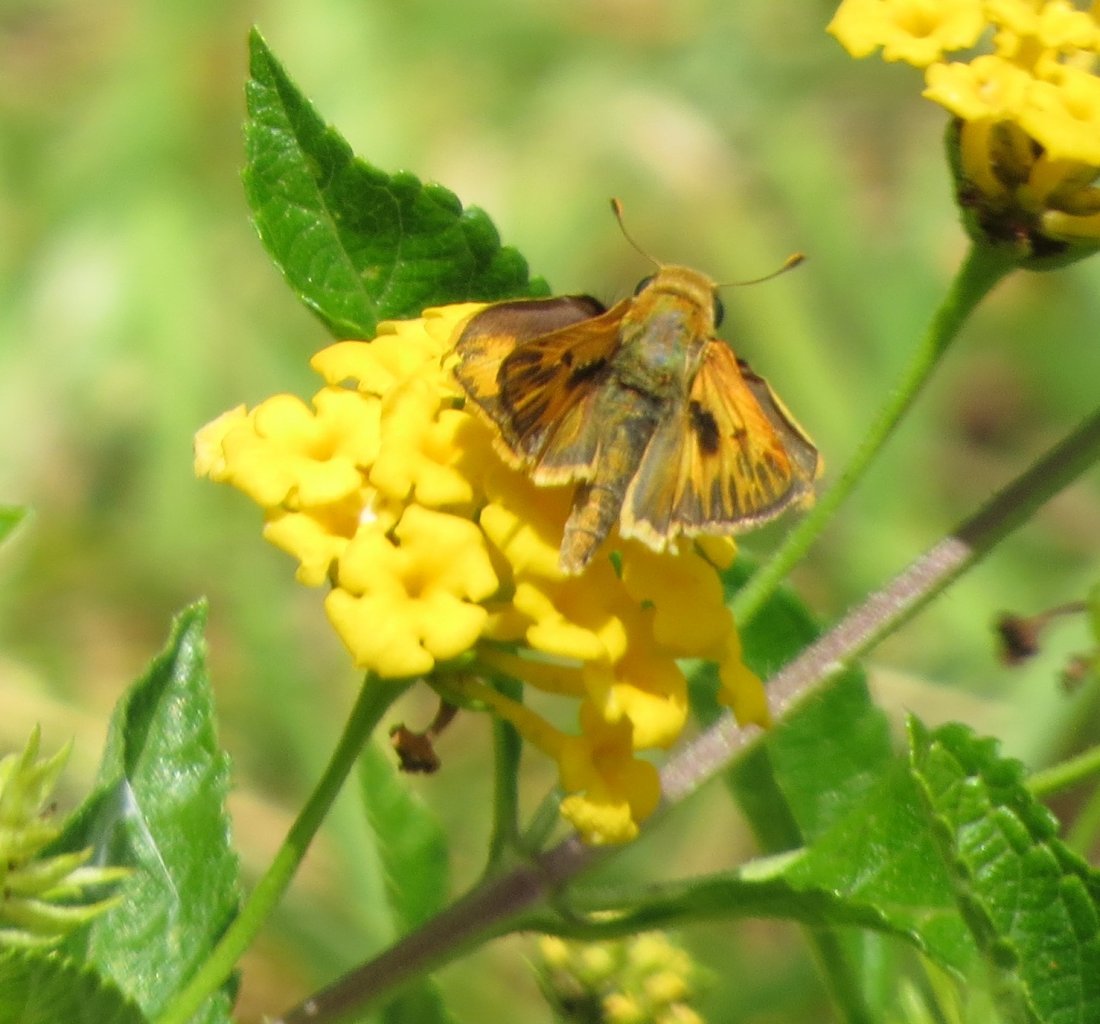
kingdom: Animalia
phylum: Arthropoda
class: Insecta
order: Lepidoptera
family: Hesperiidae
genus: Atalopedes
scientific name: Atalopedes campestris
